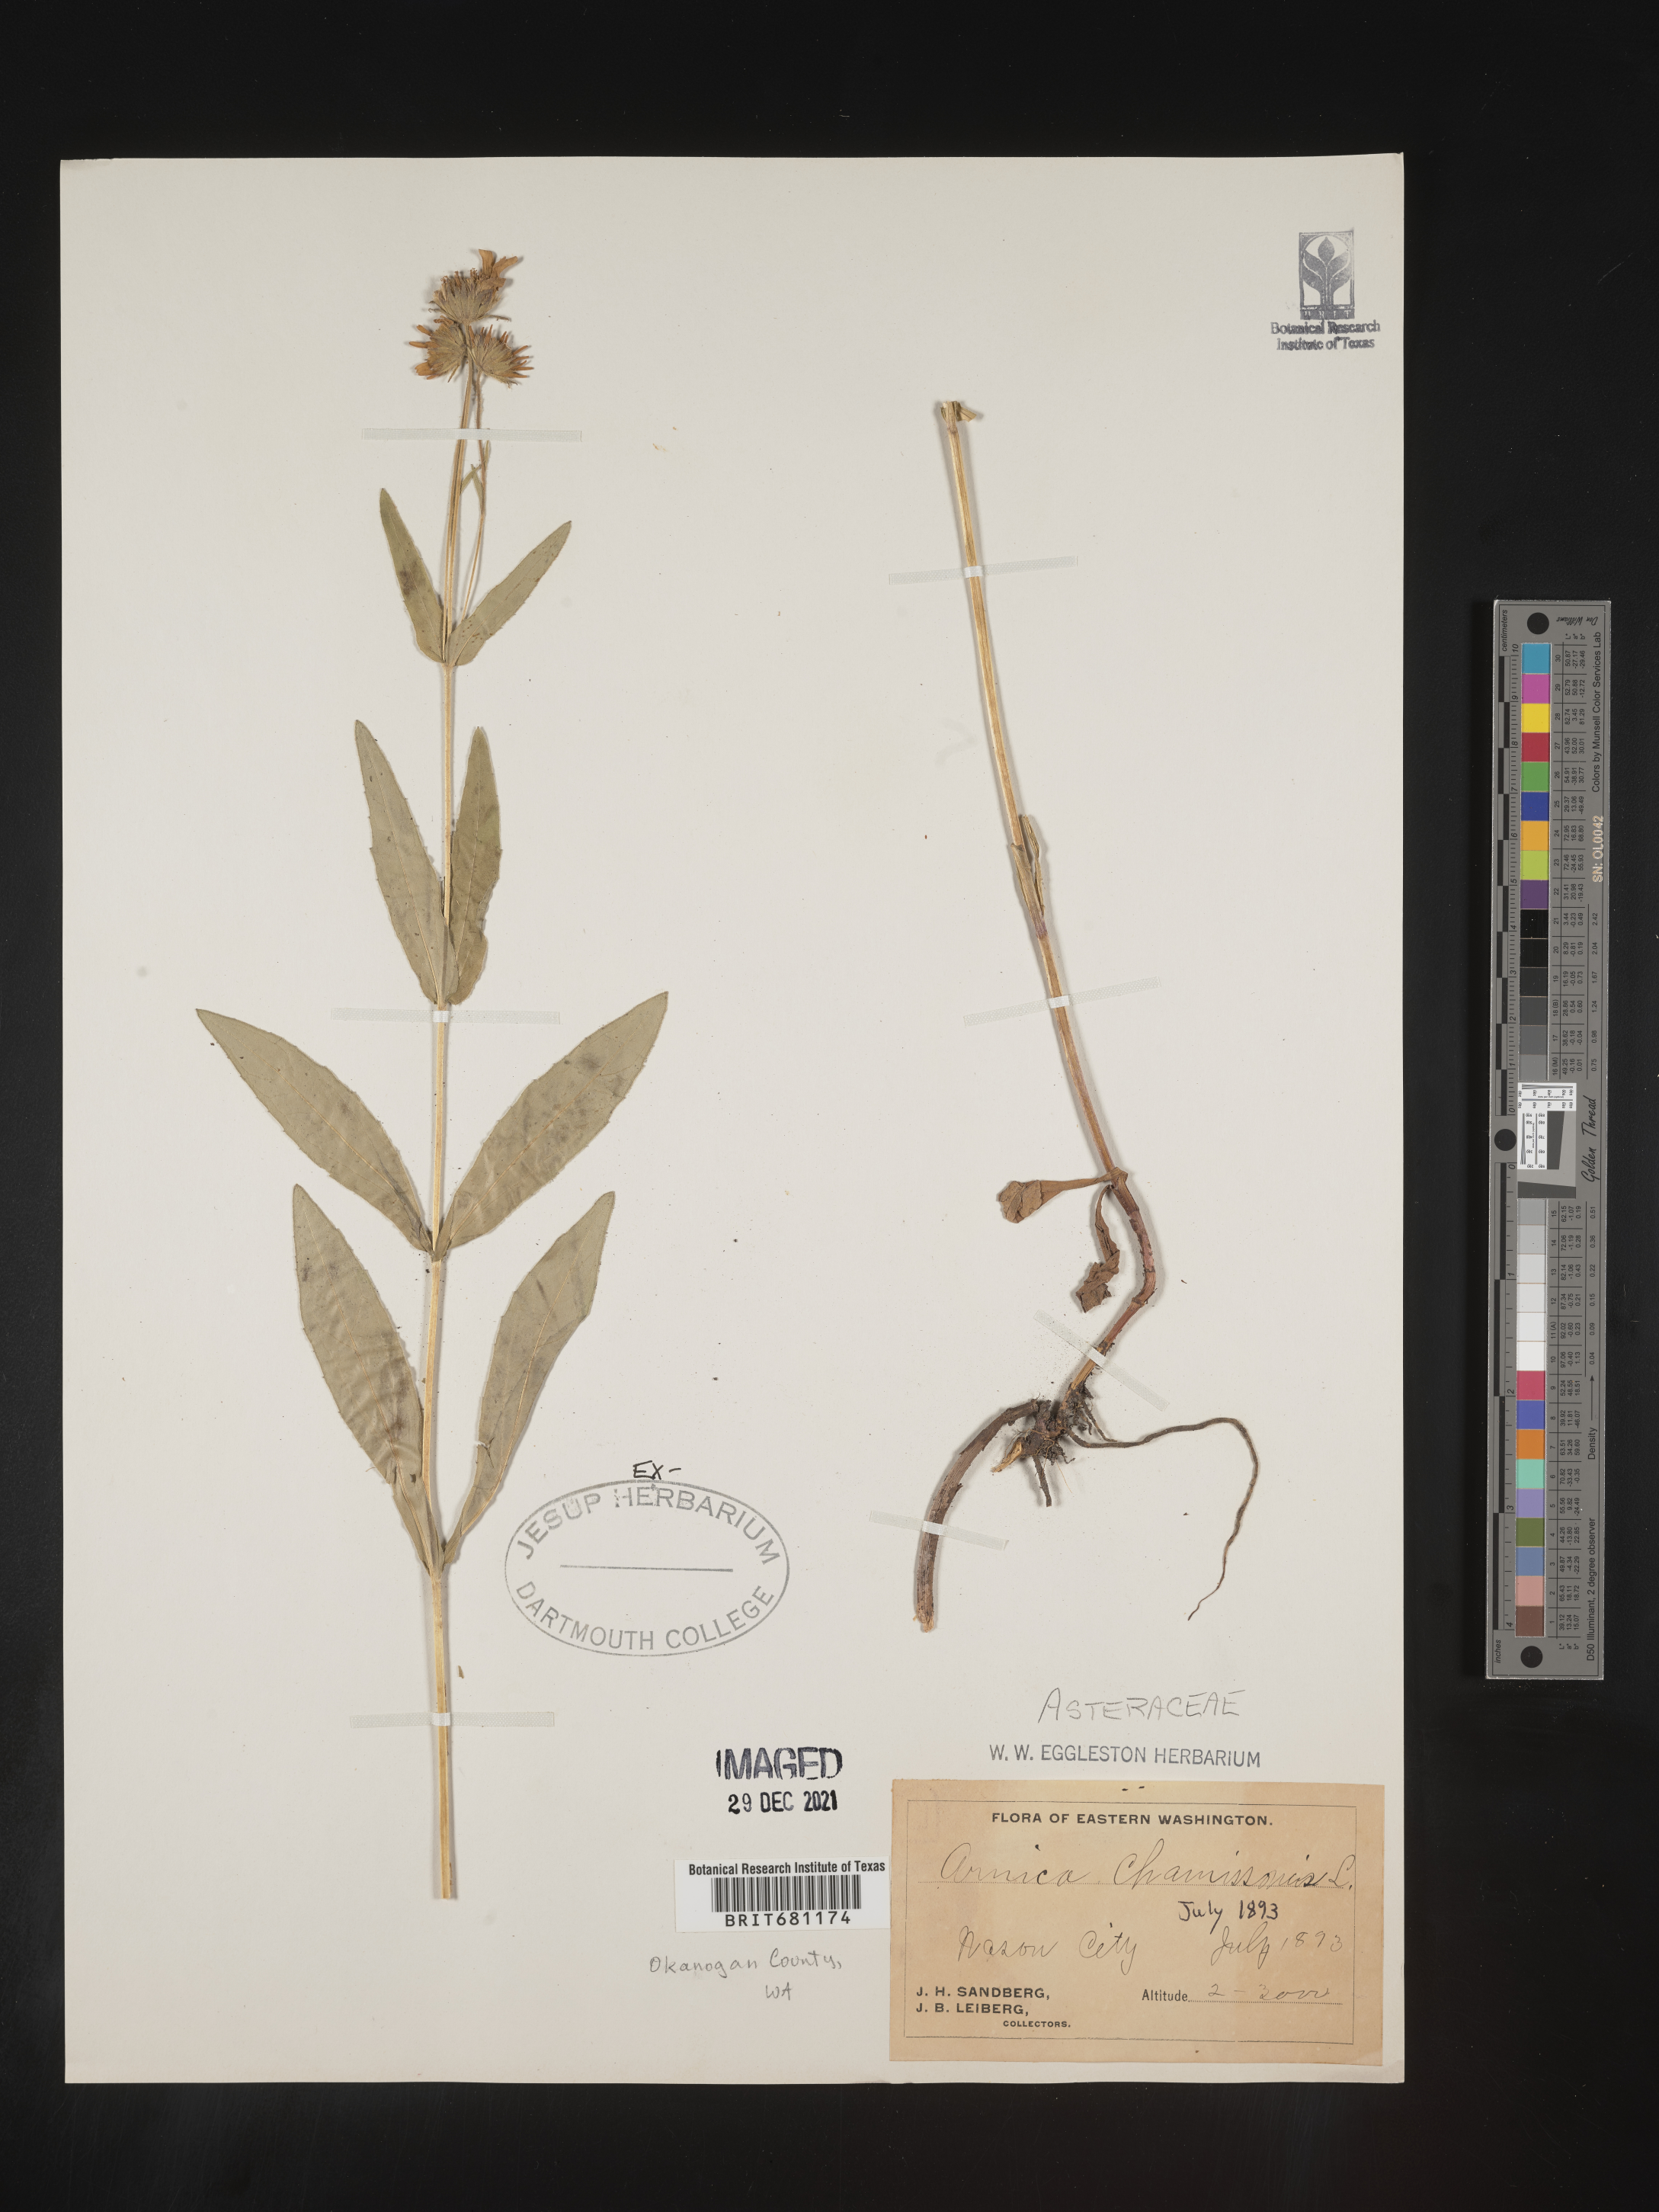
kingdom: Plantae
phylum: Tracheophyta
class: Magnoliopsida
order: Asterales
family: Asteraceae
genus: Arnica
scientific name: Arnica chamissonis
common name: Leafy arnica
